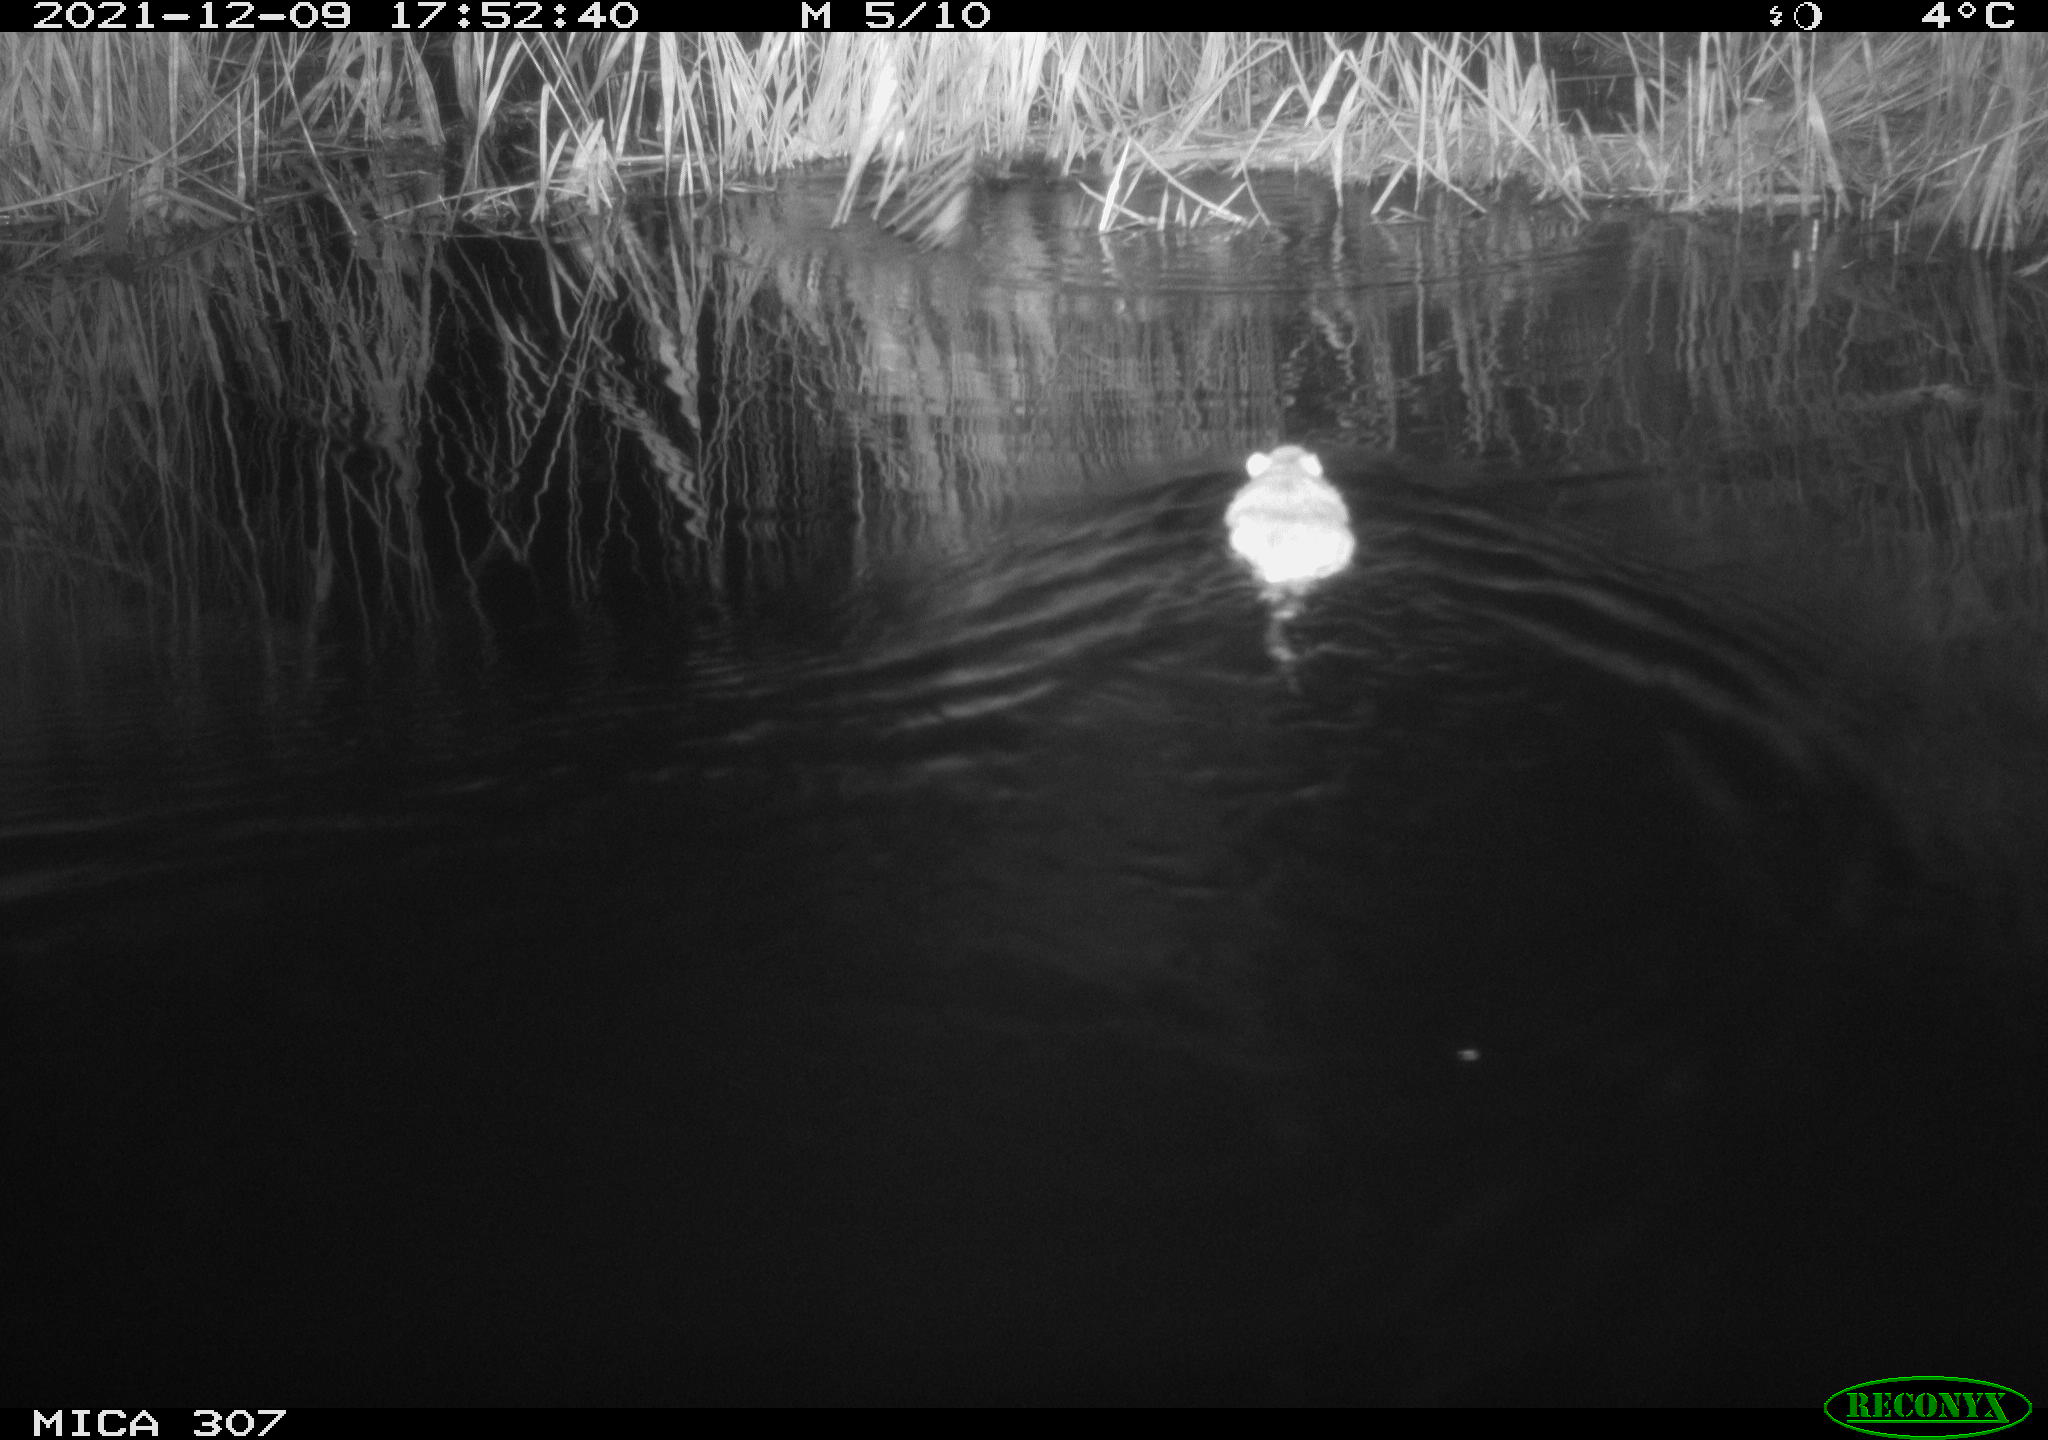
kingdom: Animalia
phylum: Chordata
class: Mammalia
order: Rodentia
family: Muridae
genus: Rattus
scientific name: Rattus norvegicus
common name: Brown rat
